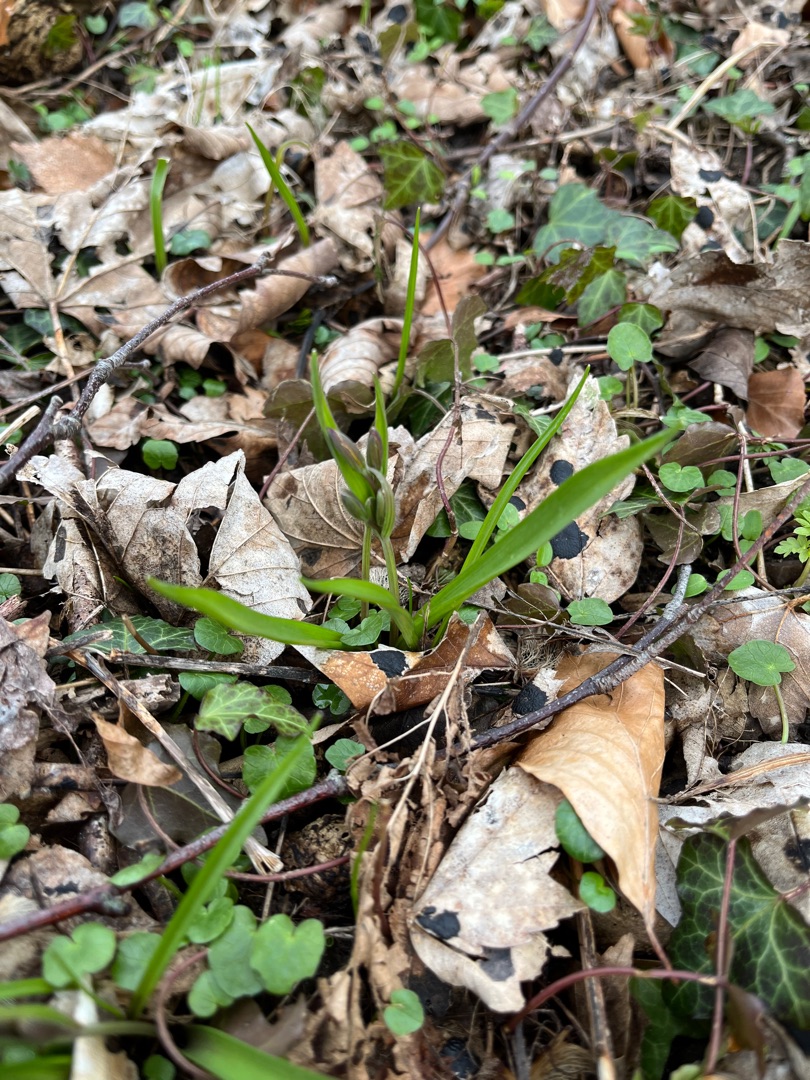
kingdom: Plantae
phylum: Tracheophyta
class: Liliopsida
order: Liliales
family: Liliaceae
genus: Gagea
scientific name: Gagea lutea
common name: Almindelig guldstjerne
